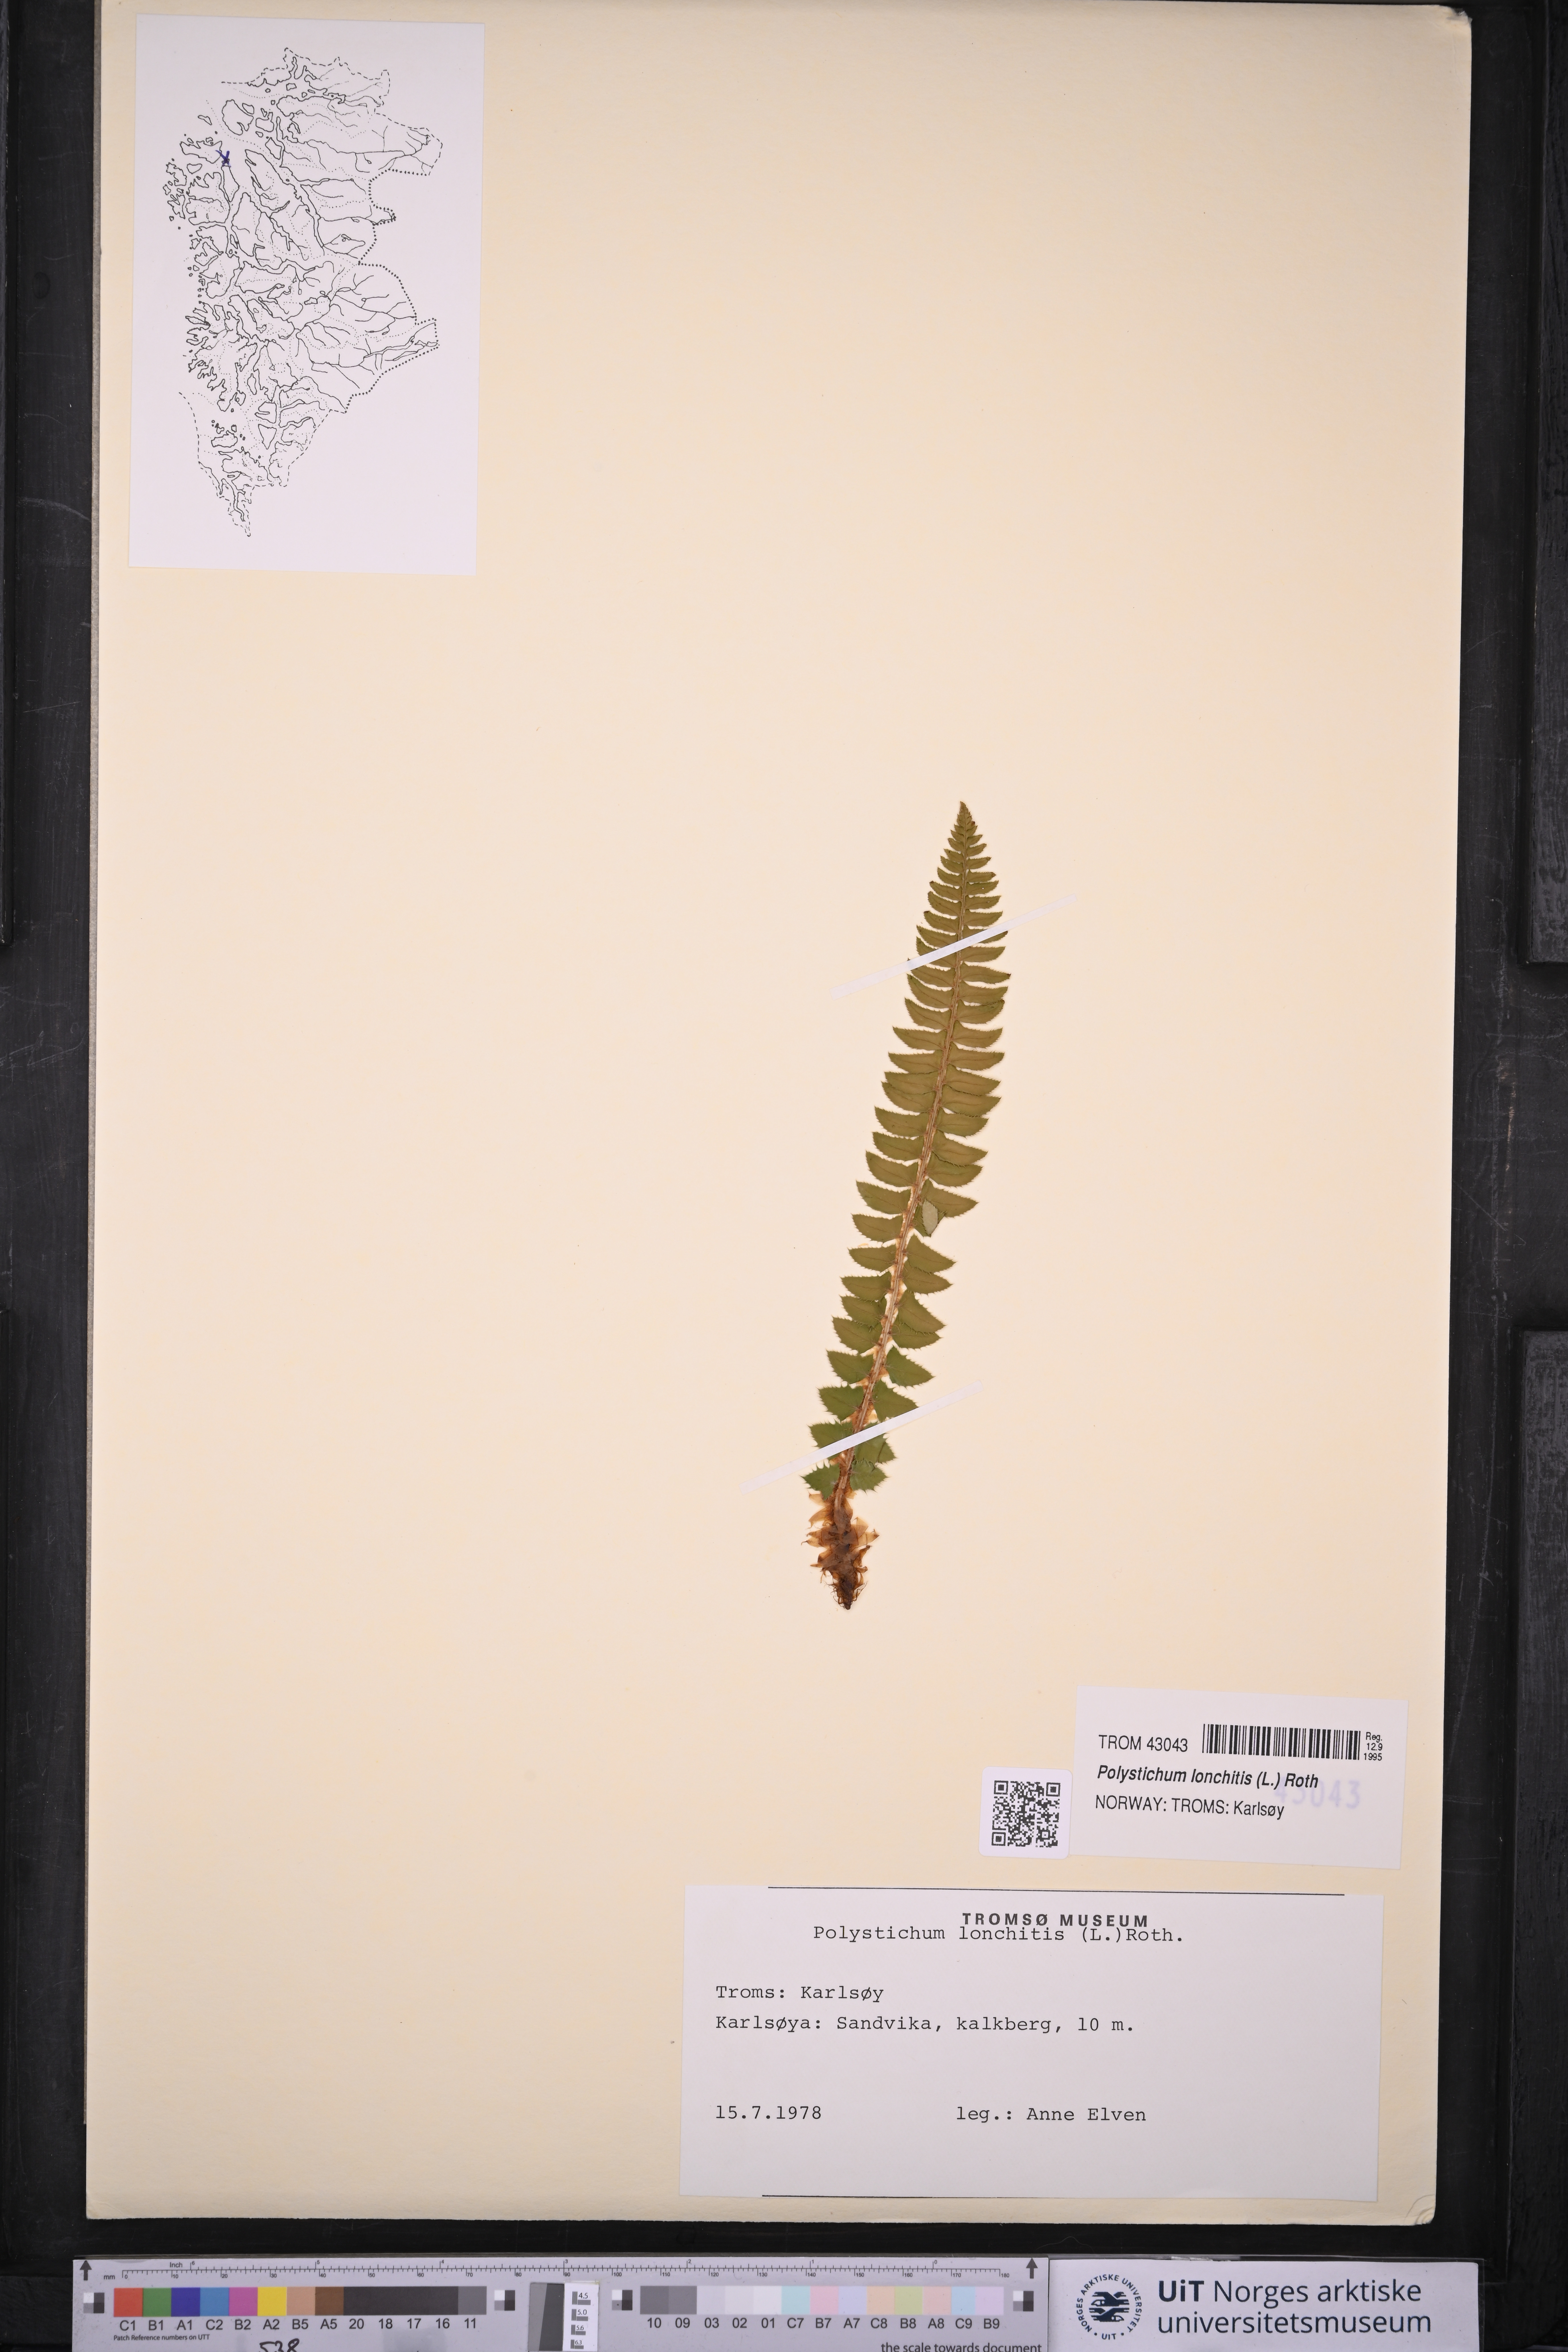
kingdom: Plantae
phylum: Tracheophyta
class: Polypodiopsida
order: Polypodiales
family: Dryopteridaceae
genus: Polystichum
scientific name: Polystichum lonchitis
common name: Holly fern
